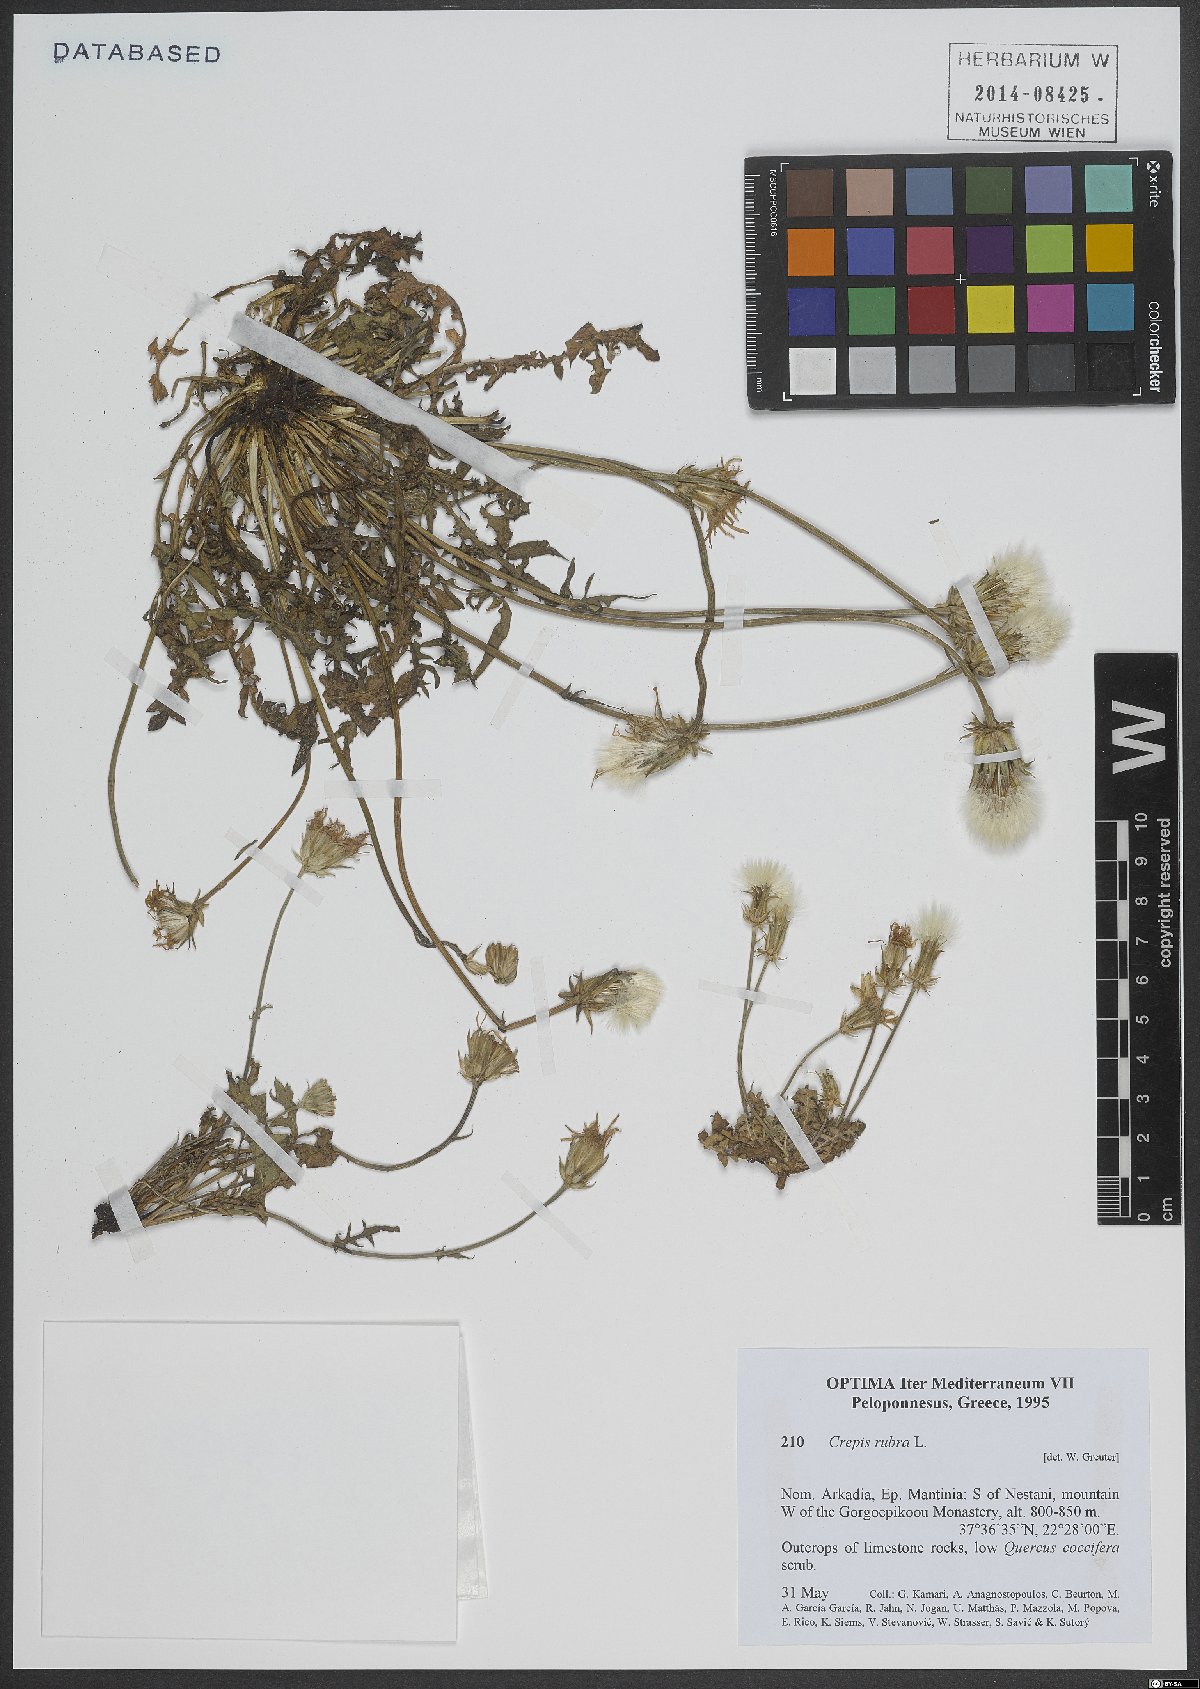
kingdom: Plantae
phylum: Tracheophyta
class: Magnoliopsida
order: Asterales
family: Asteraceae
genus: Crepis
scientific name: Crepis rubra
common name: Pink hawk's-beard
